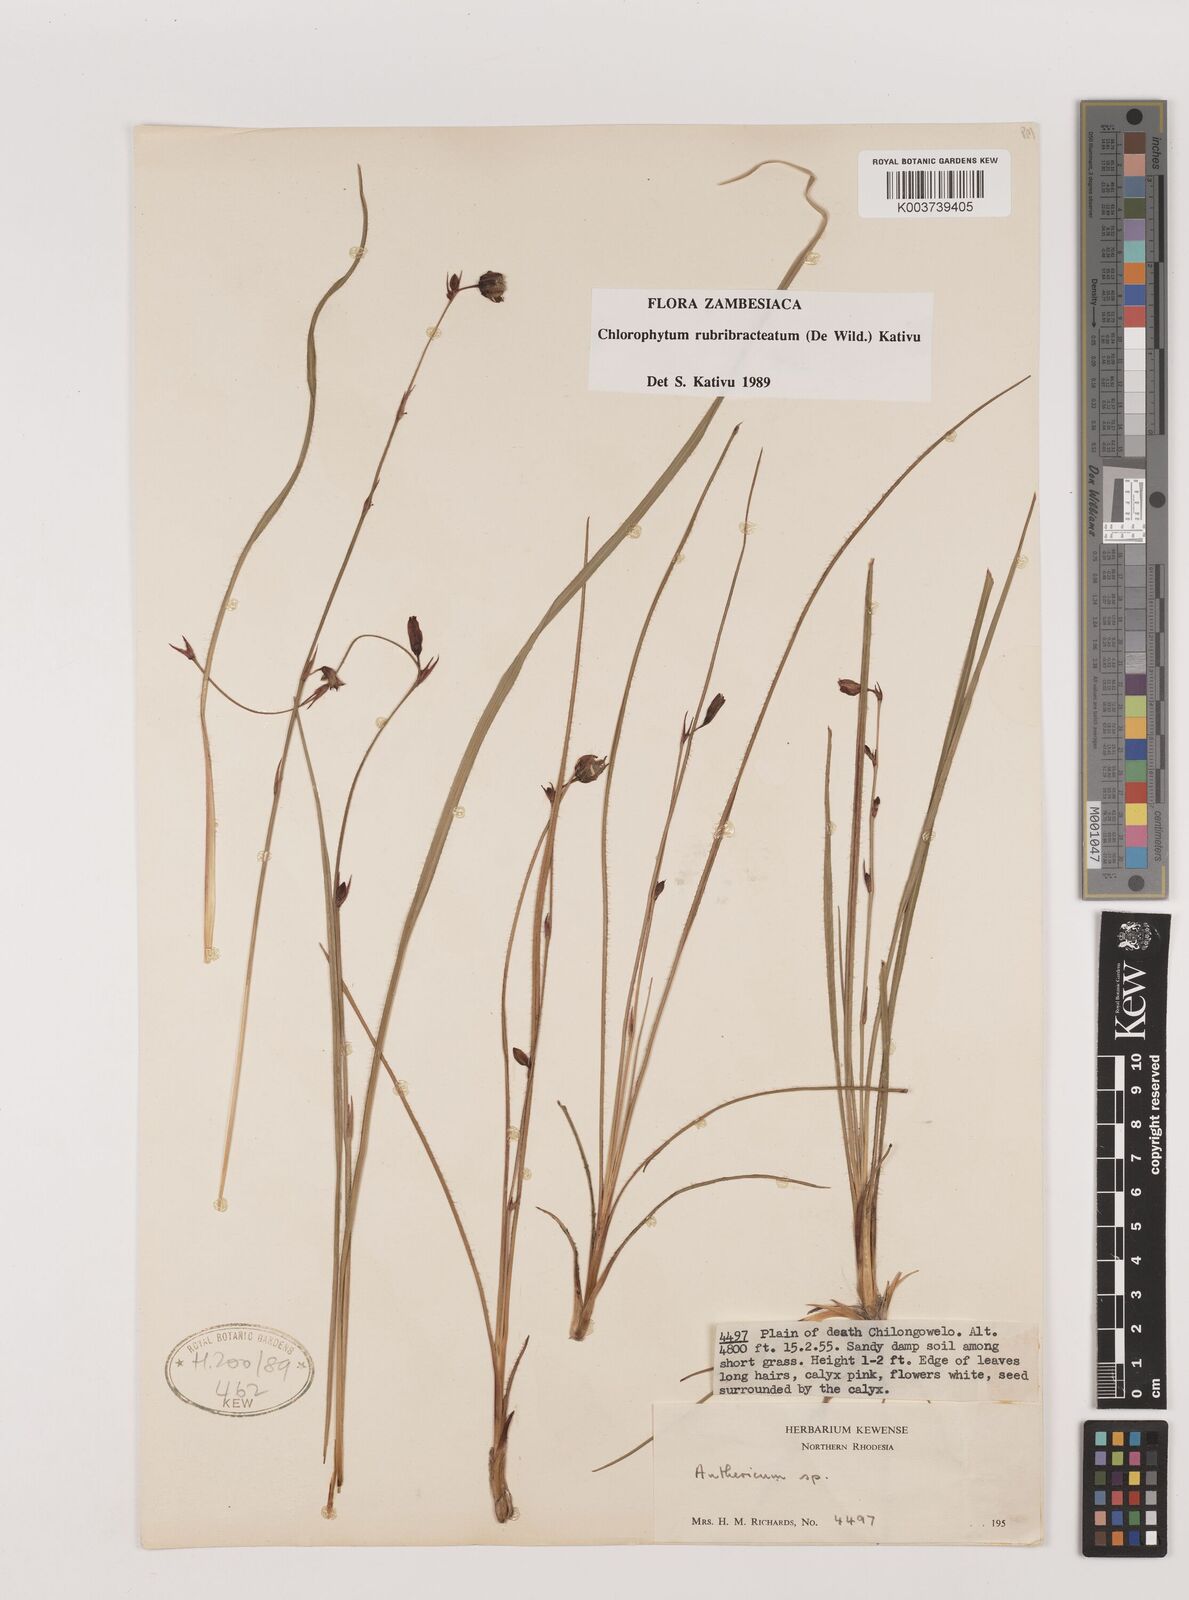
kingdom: Plantae
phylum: Tracheophyta
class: Liliopsida
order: Asparagales
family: Asparagaceae
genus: Chlorophytum
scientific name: Chlorophytum rubribracteatum
